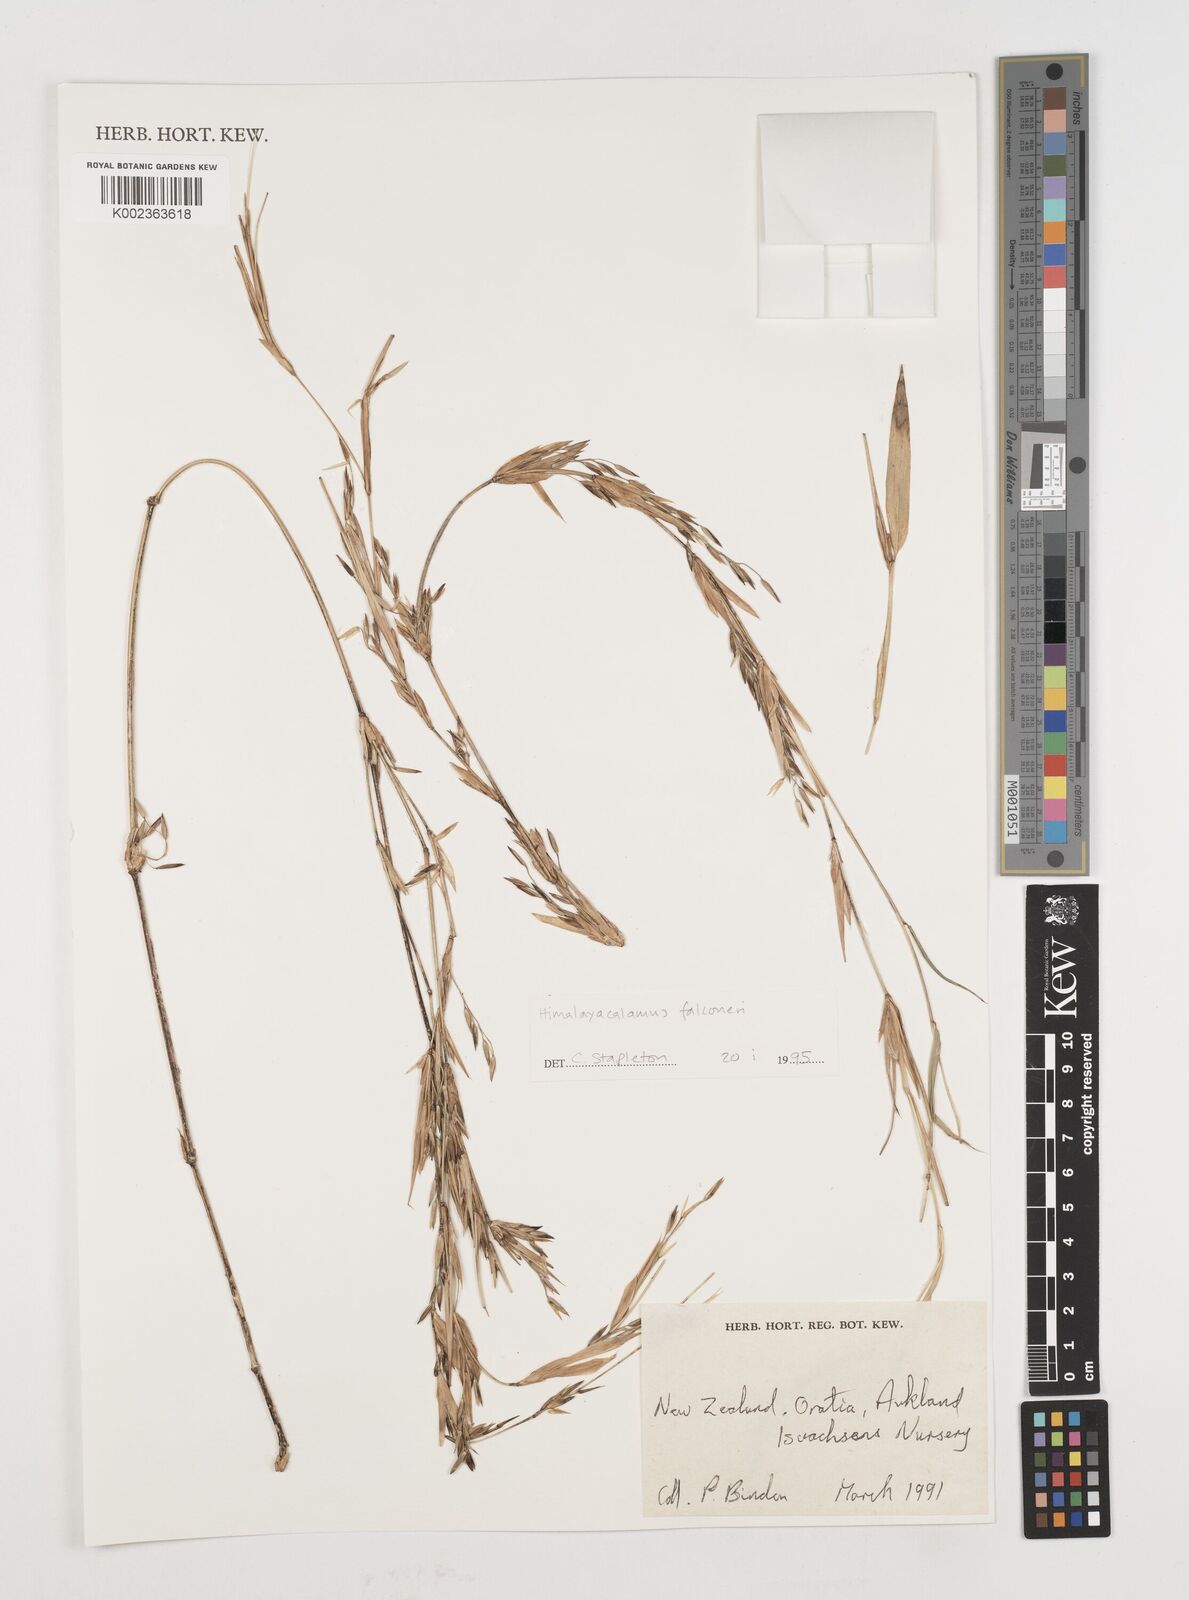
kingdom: Plantae
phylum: Tracheophyta
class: Liliopsida
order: Poales
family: Poaceae
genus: Himalayacalamus
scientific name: Himalayacalamus falconeri
